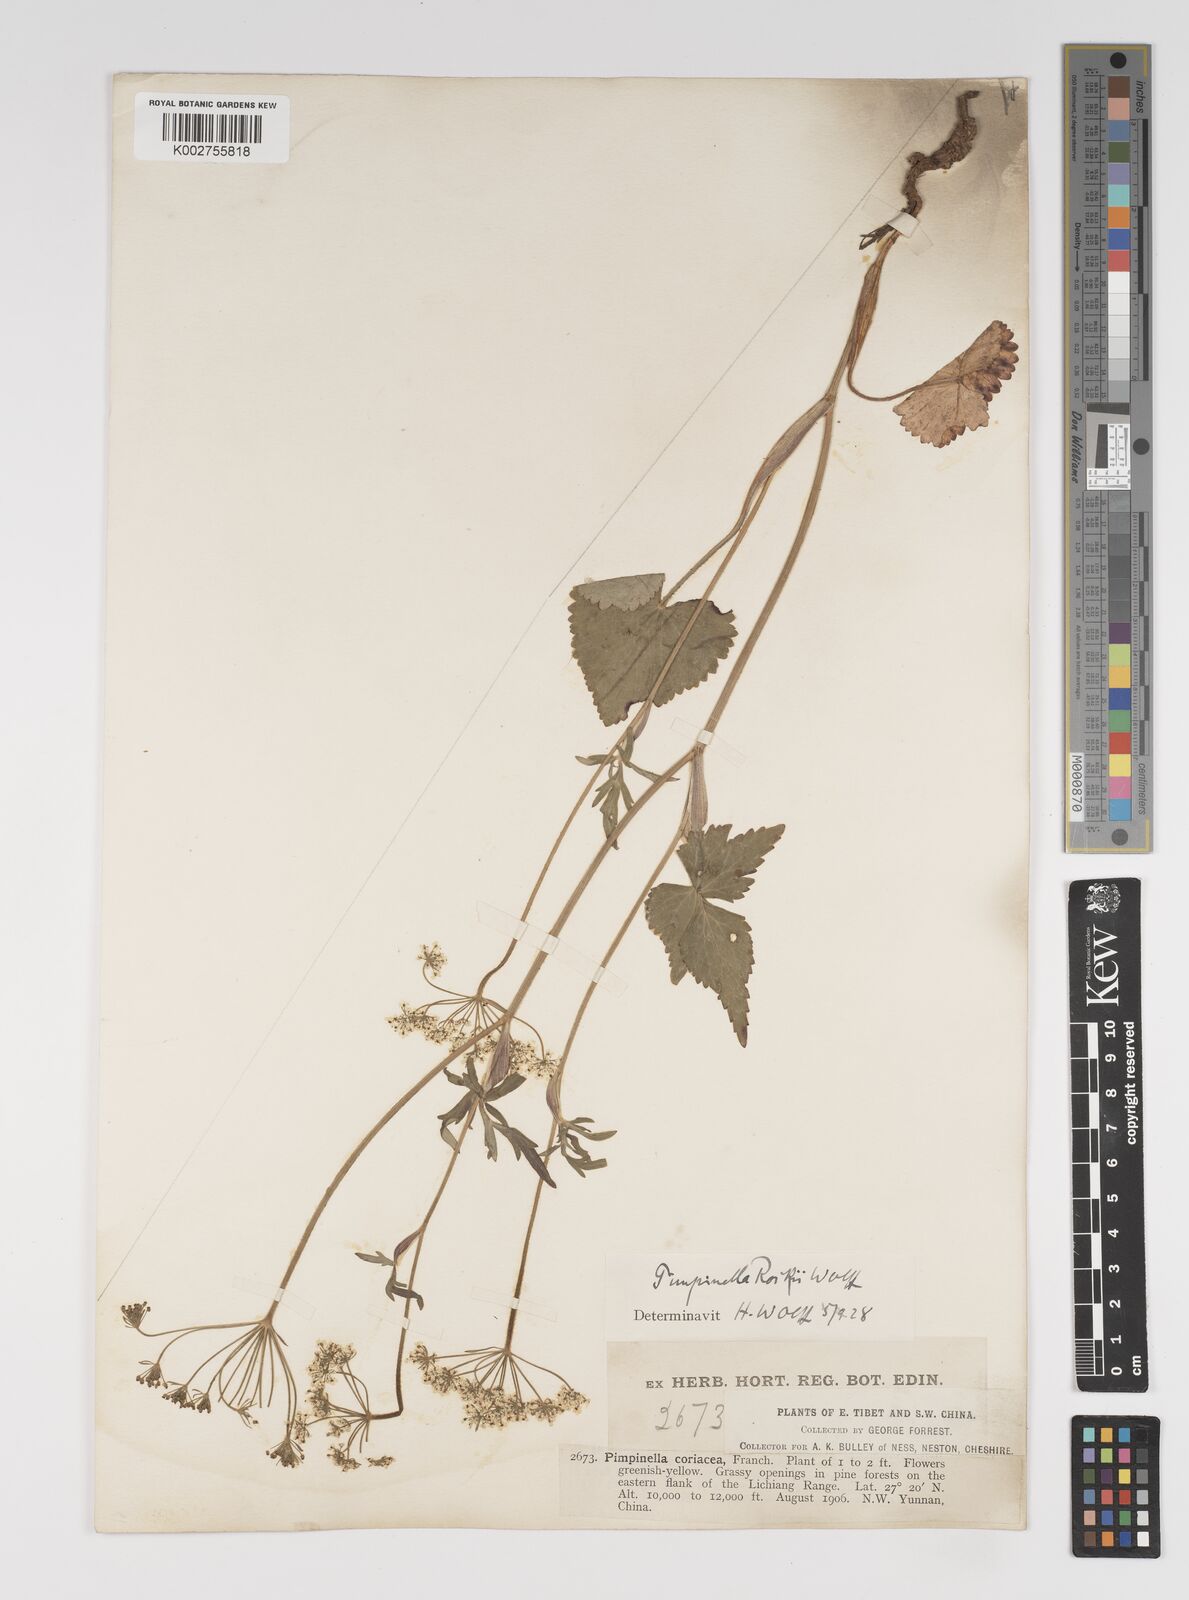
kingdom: Plantae
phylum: Tracheophyta
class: Magnoliopsida
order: Apiales
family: Apiaceae
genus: Pimpinella
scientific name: Pimpinella coriacea
